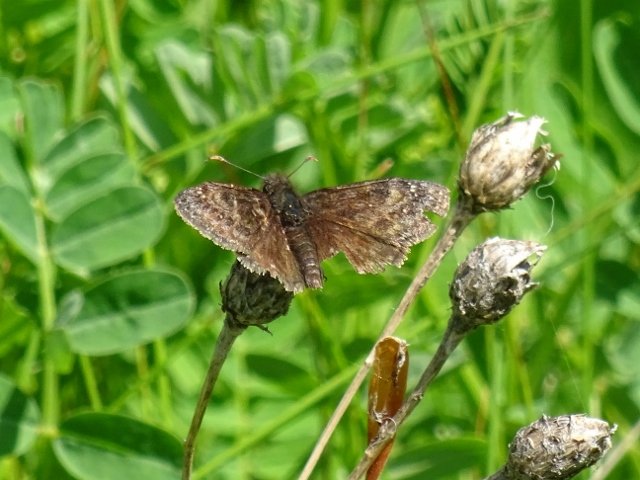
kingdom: Animalia
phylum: Arthropoda
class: Insecta
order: Lepidoptera
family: Hesperiidae
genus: Erynnis
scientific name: Erynnis
